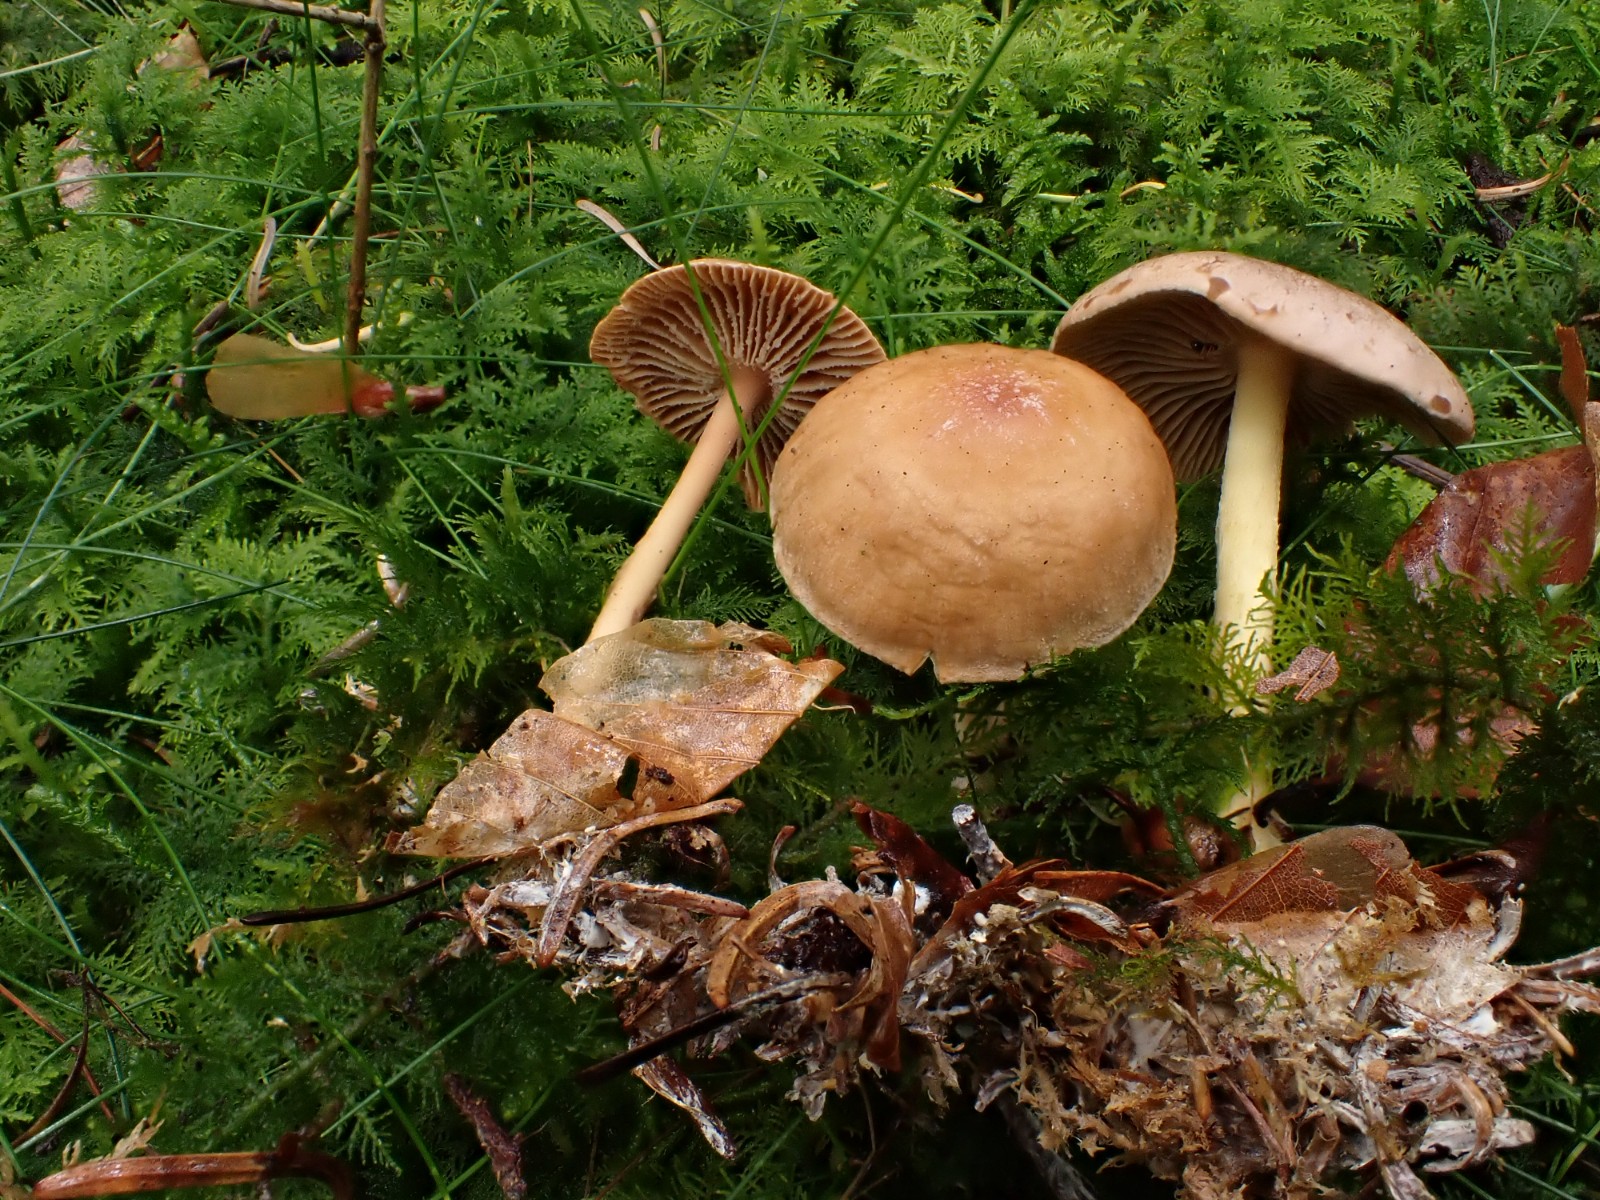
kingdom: Fungi
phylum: Basidiomycota
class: Agaricomycetes
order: Agaricales
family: Omphalotaceae
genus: Collybiopsis
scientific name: Collybiopsis peronata
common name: bestøvlet fladhat
